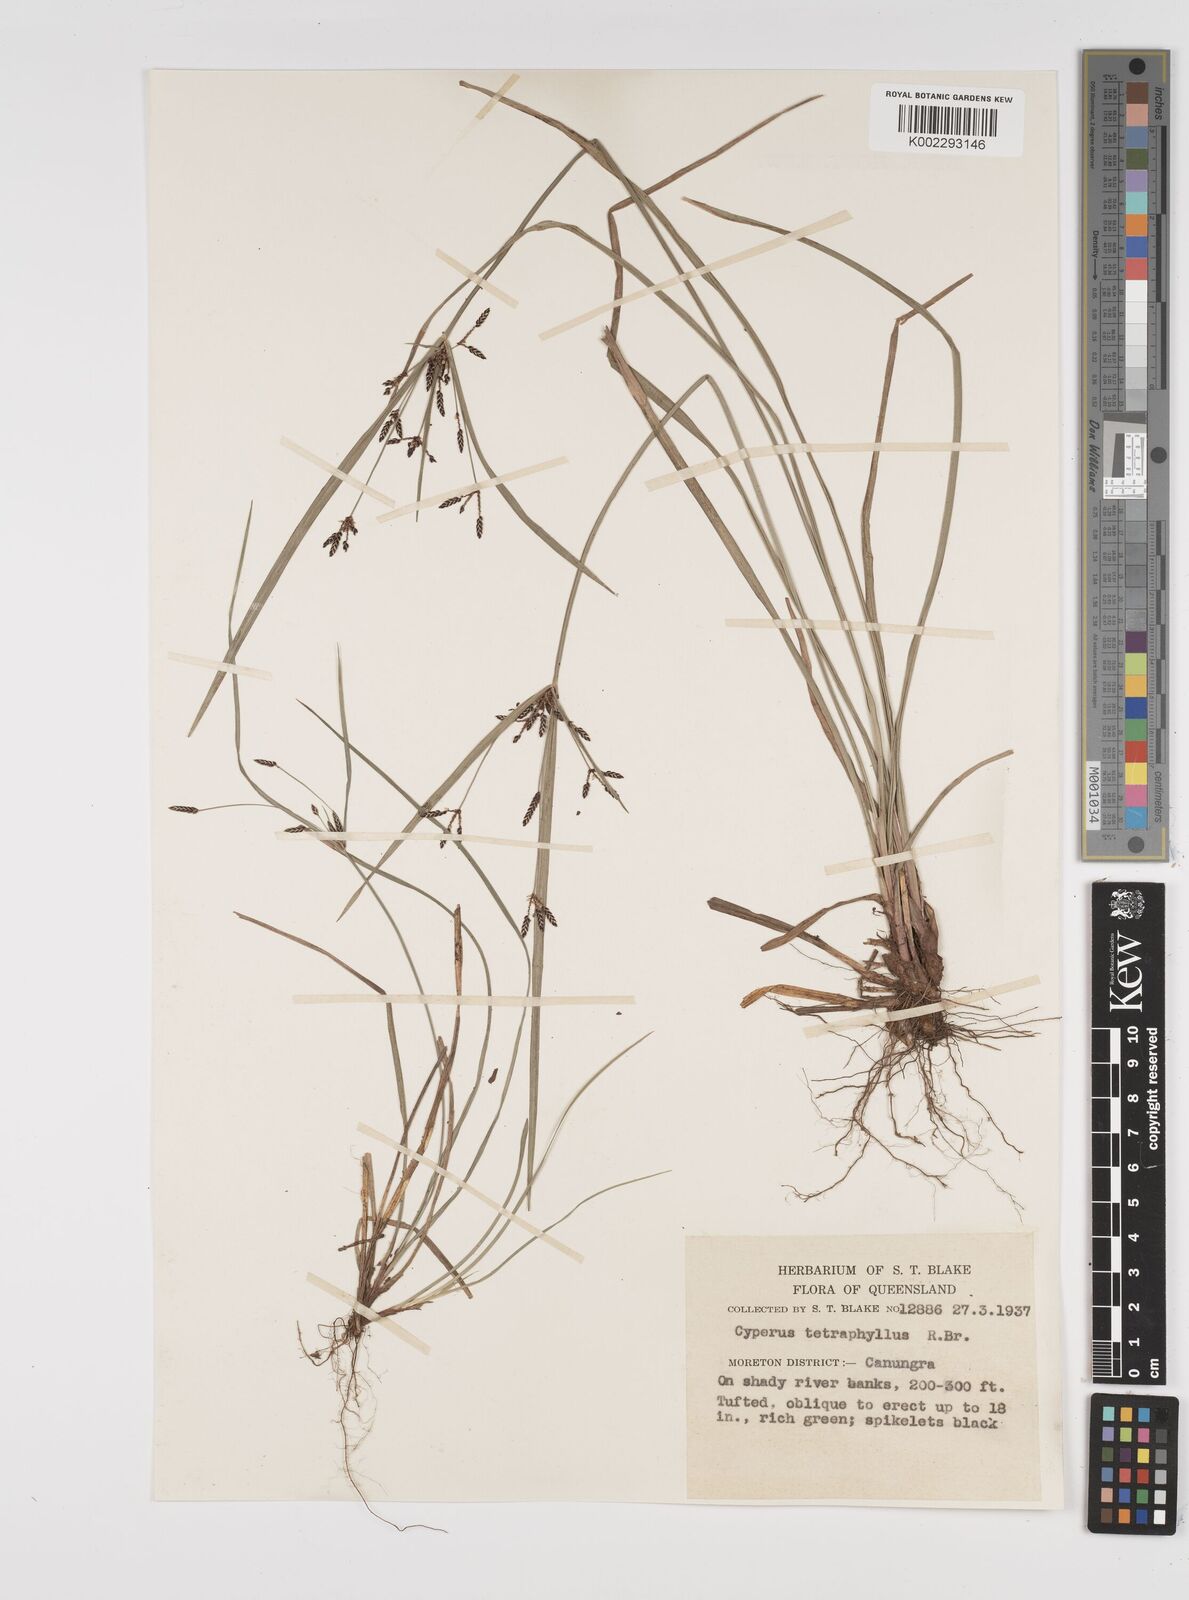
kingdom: Plantae
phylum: Tracheophyta
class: Liliopsida
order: Poales
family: Cyperaceae
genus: Cyperus
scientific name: Cyperus tetraphyllus
